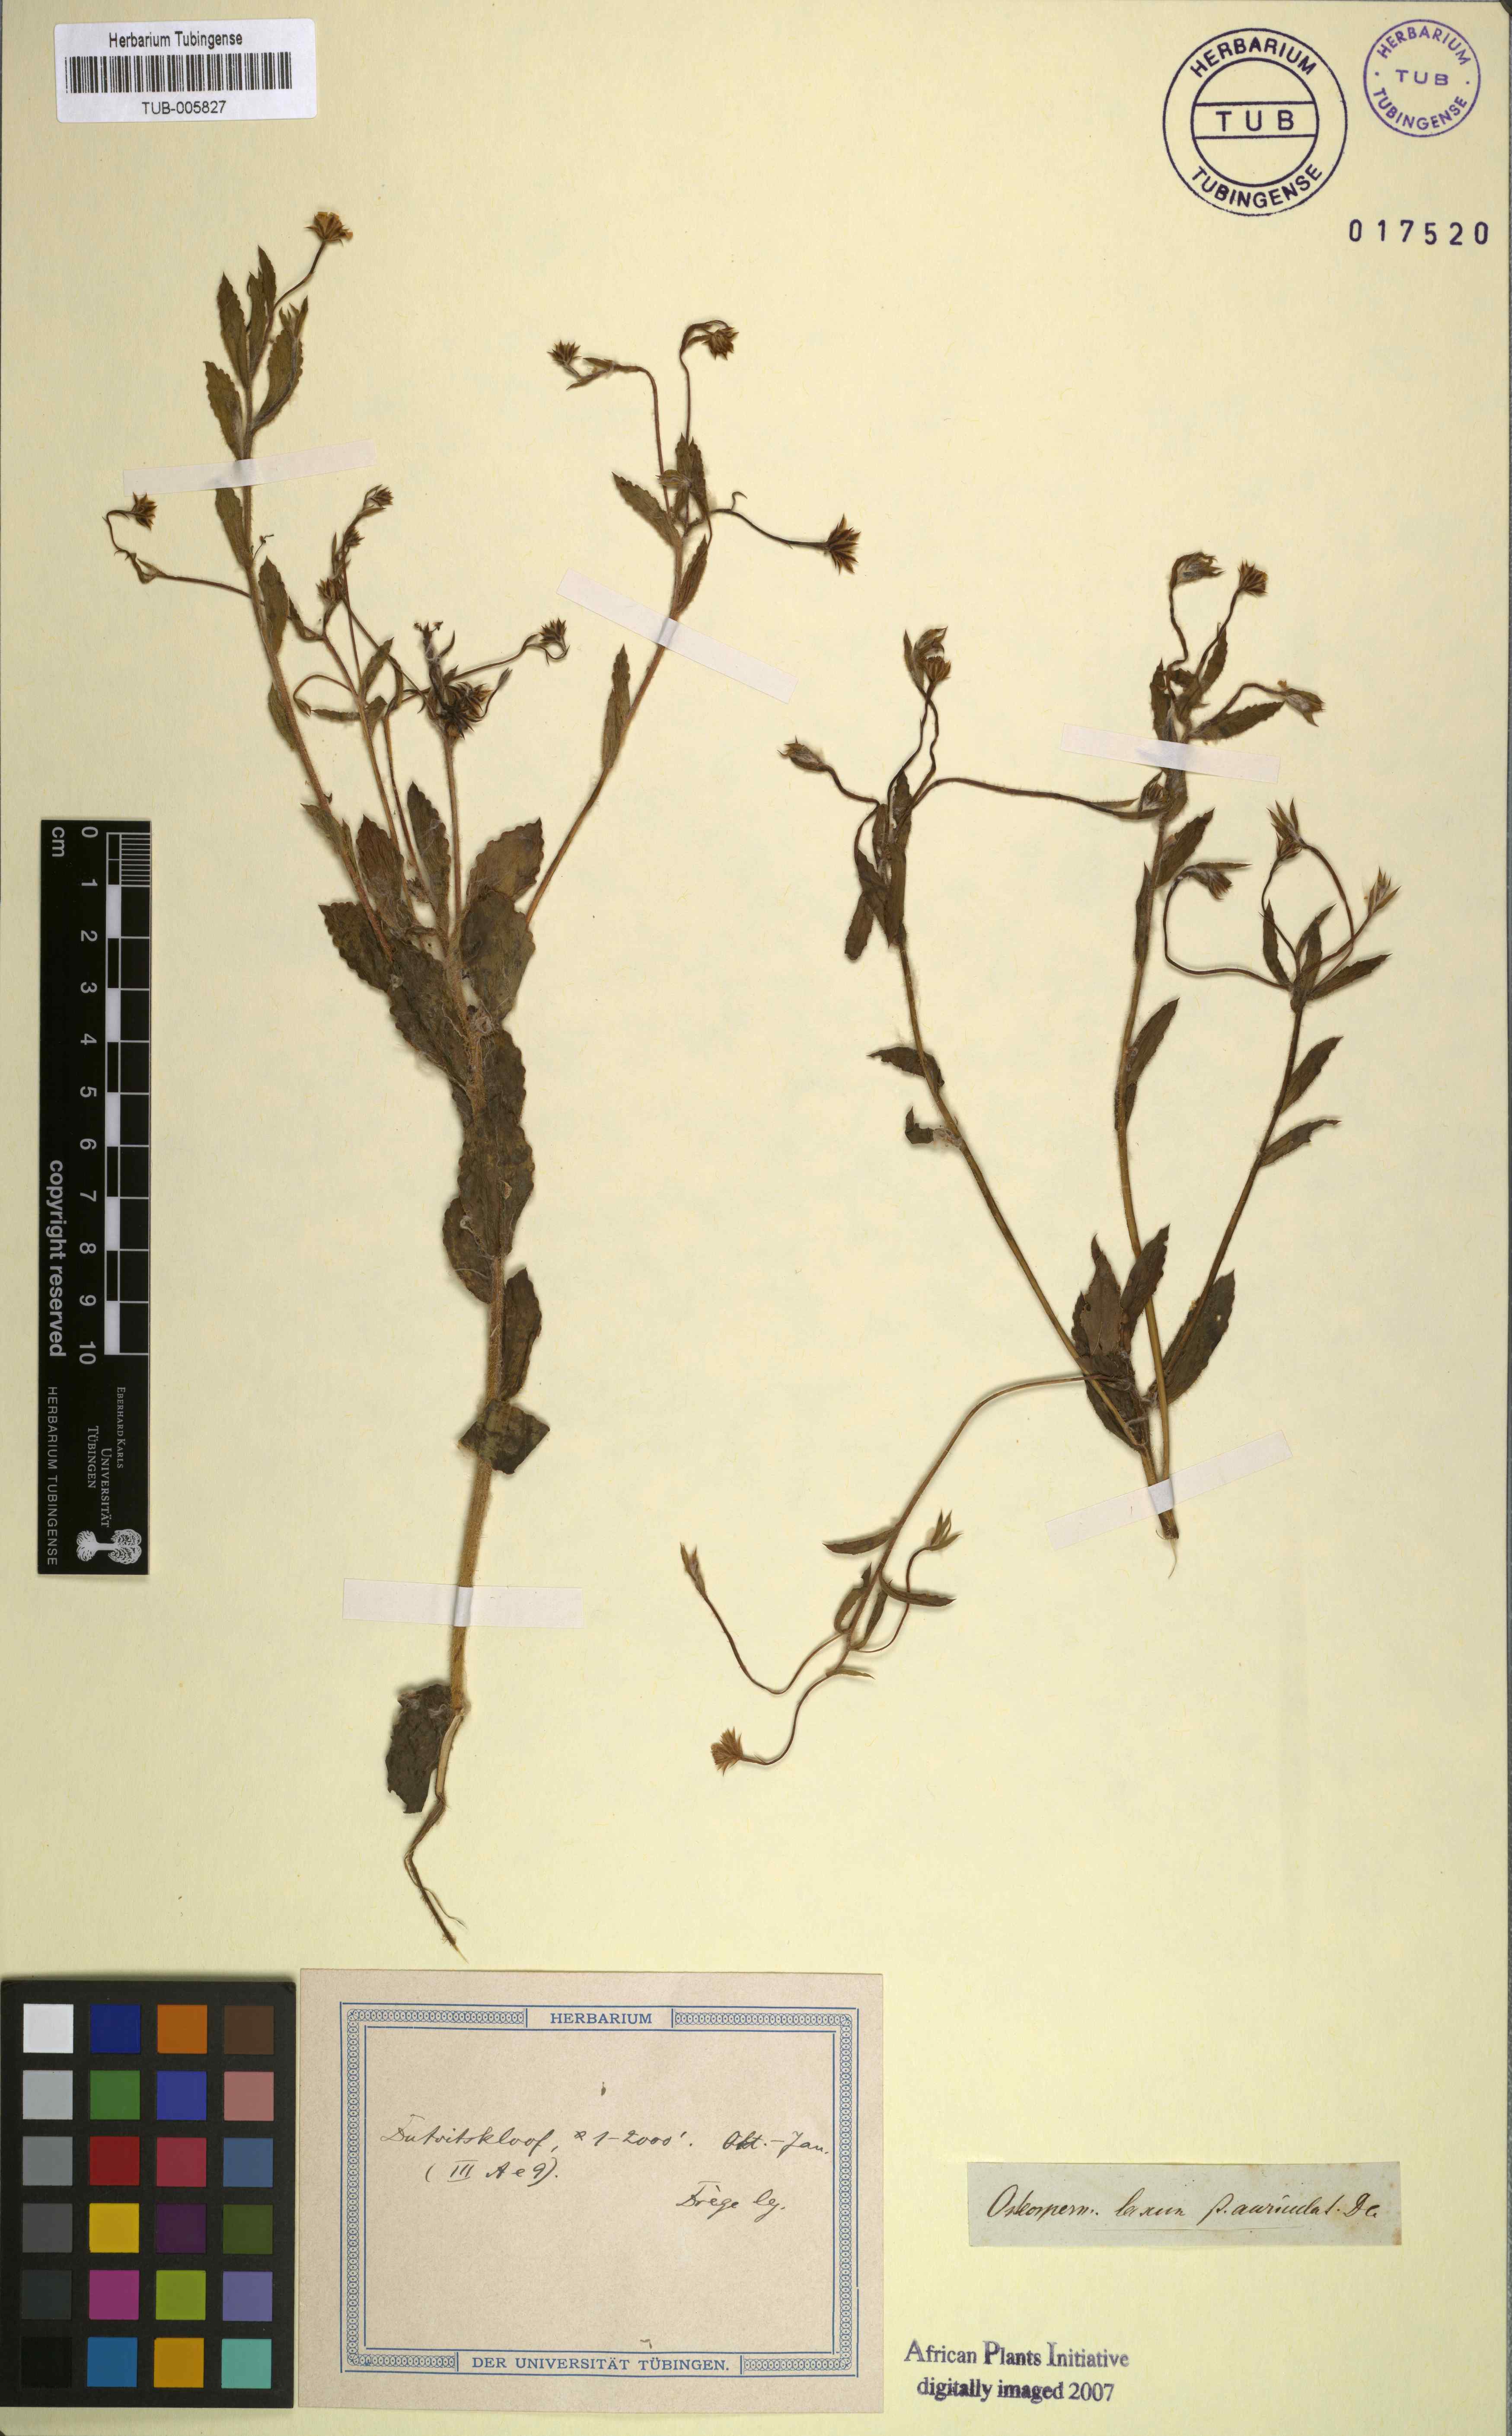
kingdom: Plantae
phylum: Tracheophyta
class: Magnoliopsida
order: Asterales
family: Asteraceae
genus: Osteospermum
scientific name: Osteospermum ciliatum
